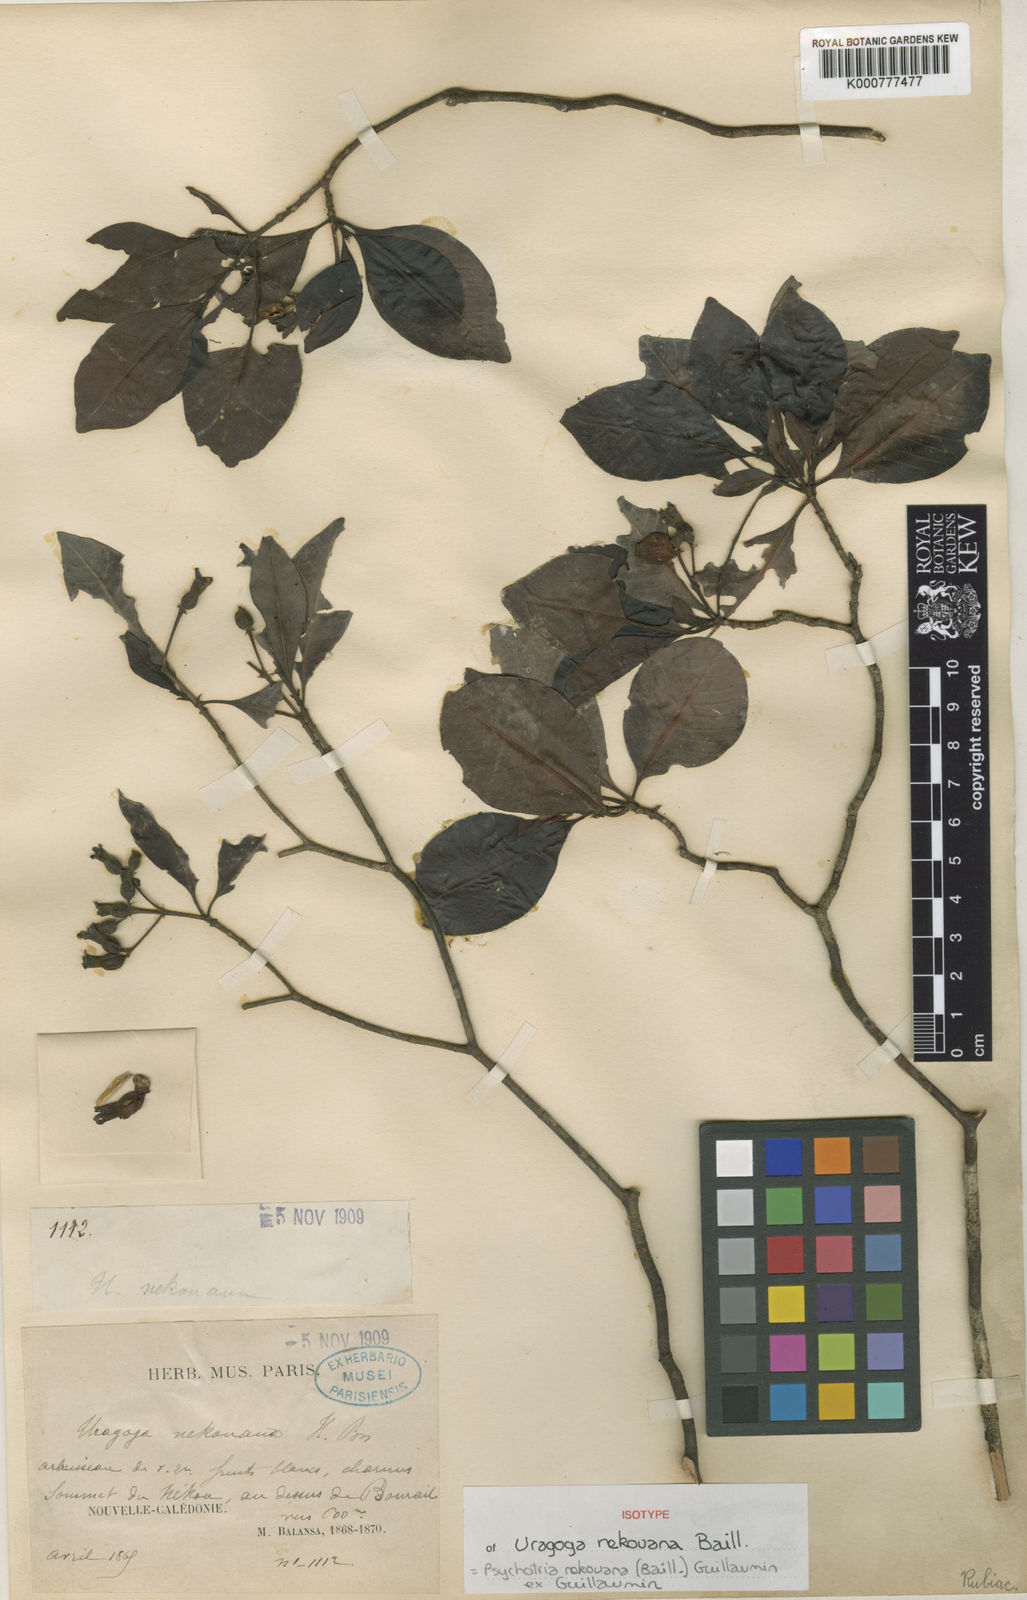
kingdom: Plantae
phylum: Tracheophyta
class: Magnoliopsida
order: Gentianales
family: Rubiaceae
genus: Psychotria
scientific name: Psychotria nekouana
